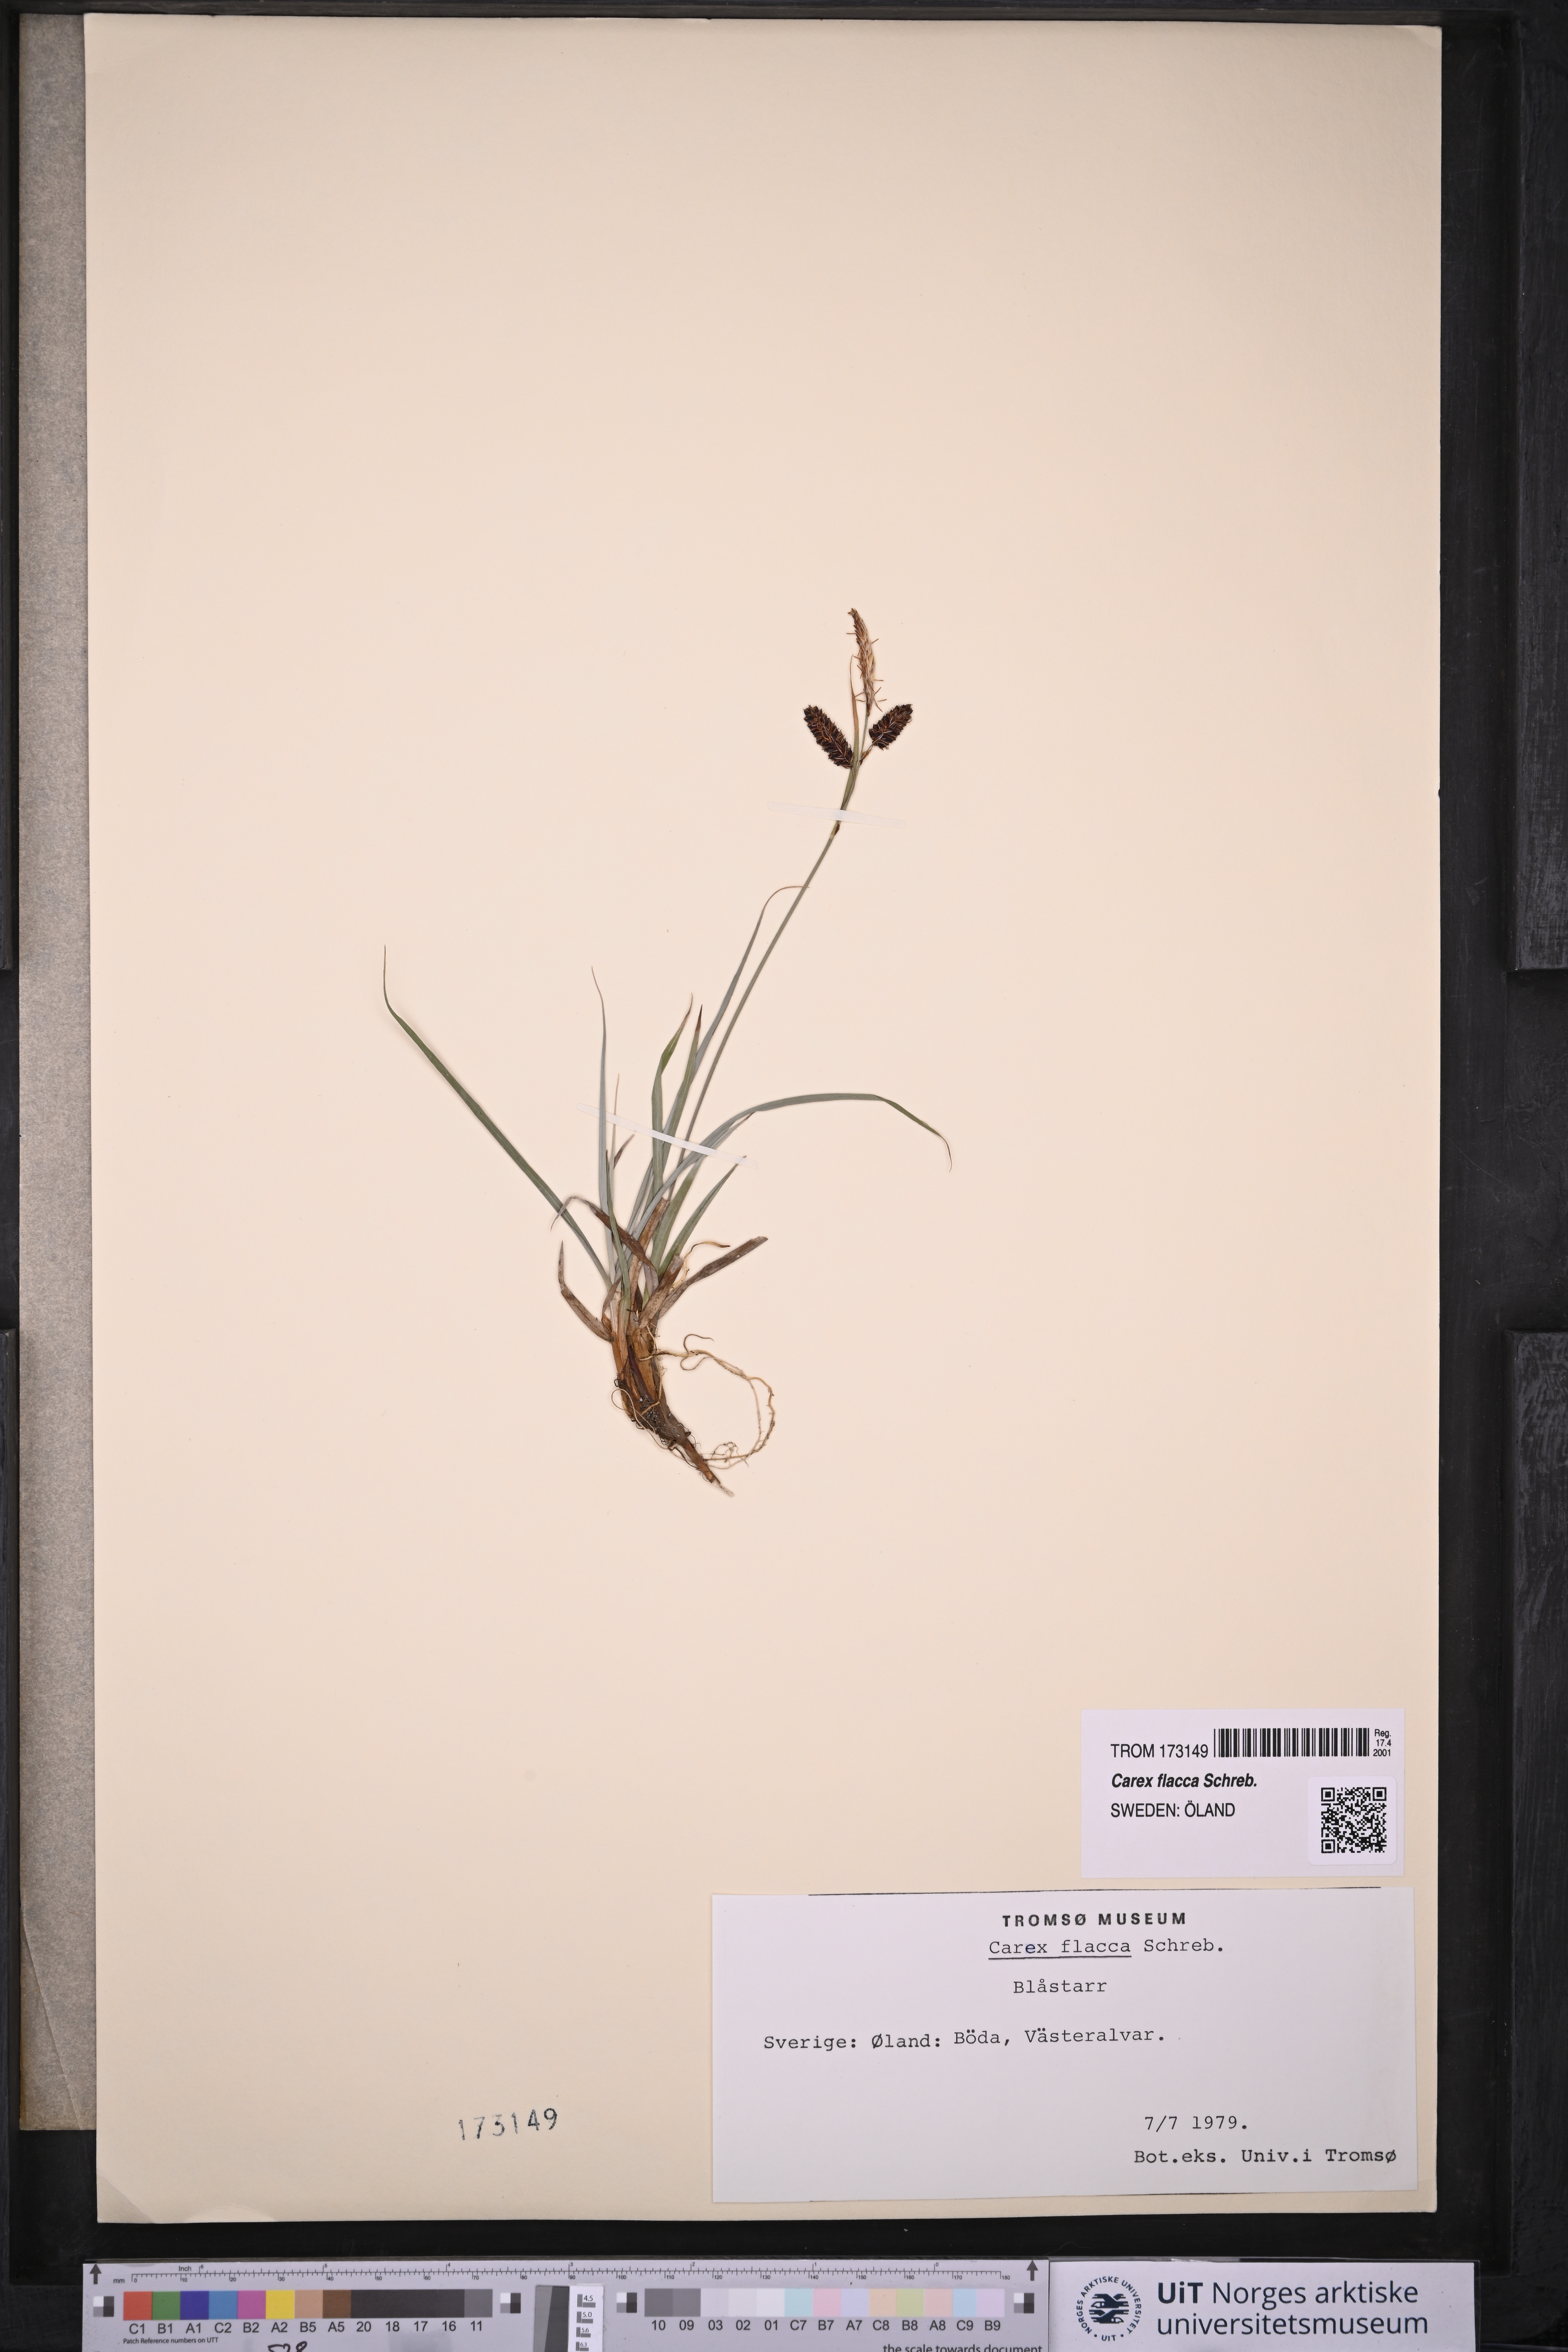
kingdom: Plantae
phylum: Tracheophyta
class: Liliopsida
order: Poales
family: Cyperaceae
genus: Carex
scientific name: Carex flacca
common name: Glaucous sedge
